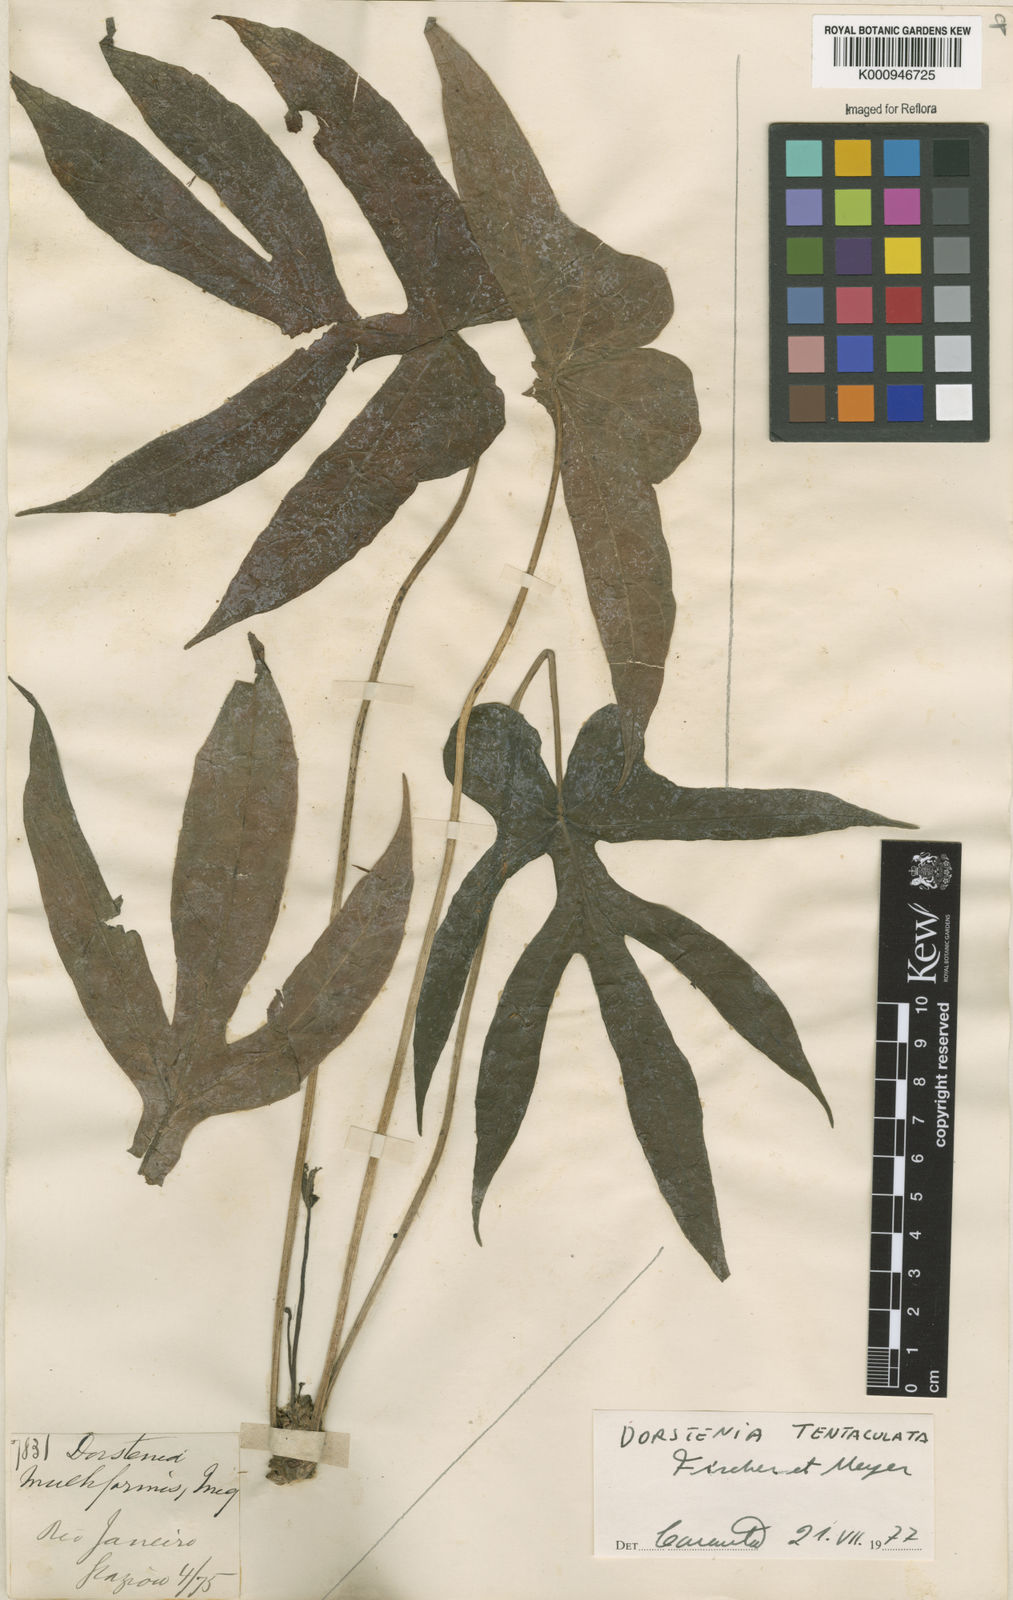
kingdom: Plantae
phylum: Tracheophyta
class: Magnoliopsida
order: Rosales
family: Moraceae
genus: Dorstenia
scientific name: Dorstenia tentaculata
